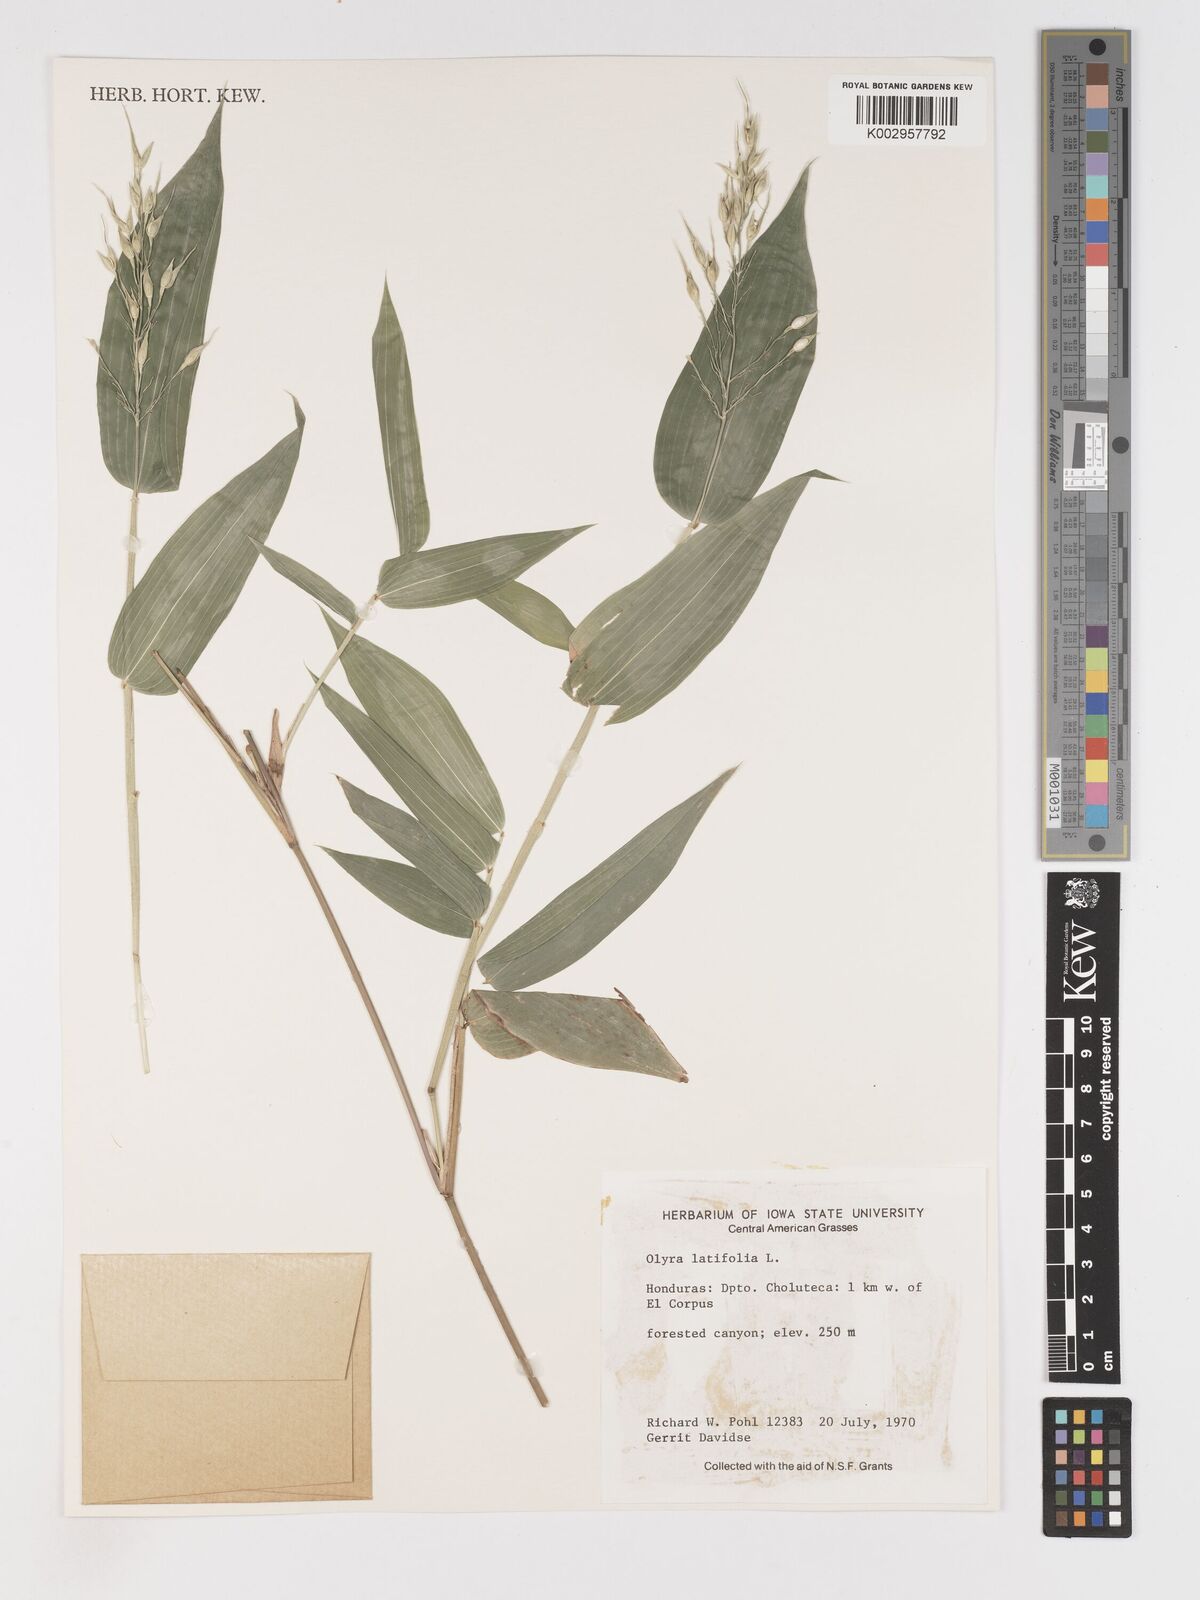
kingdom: Plantae
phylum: Tracheophyta
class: Liliopsida
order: Poales
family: Poaceae
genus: Olyra
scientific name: Olyra latifolia
